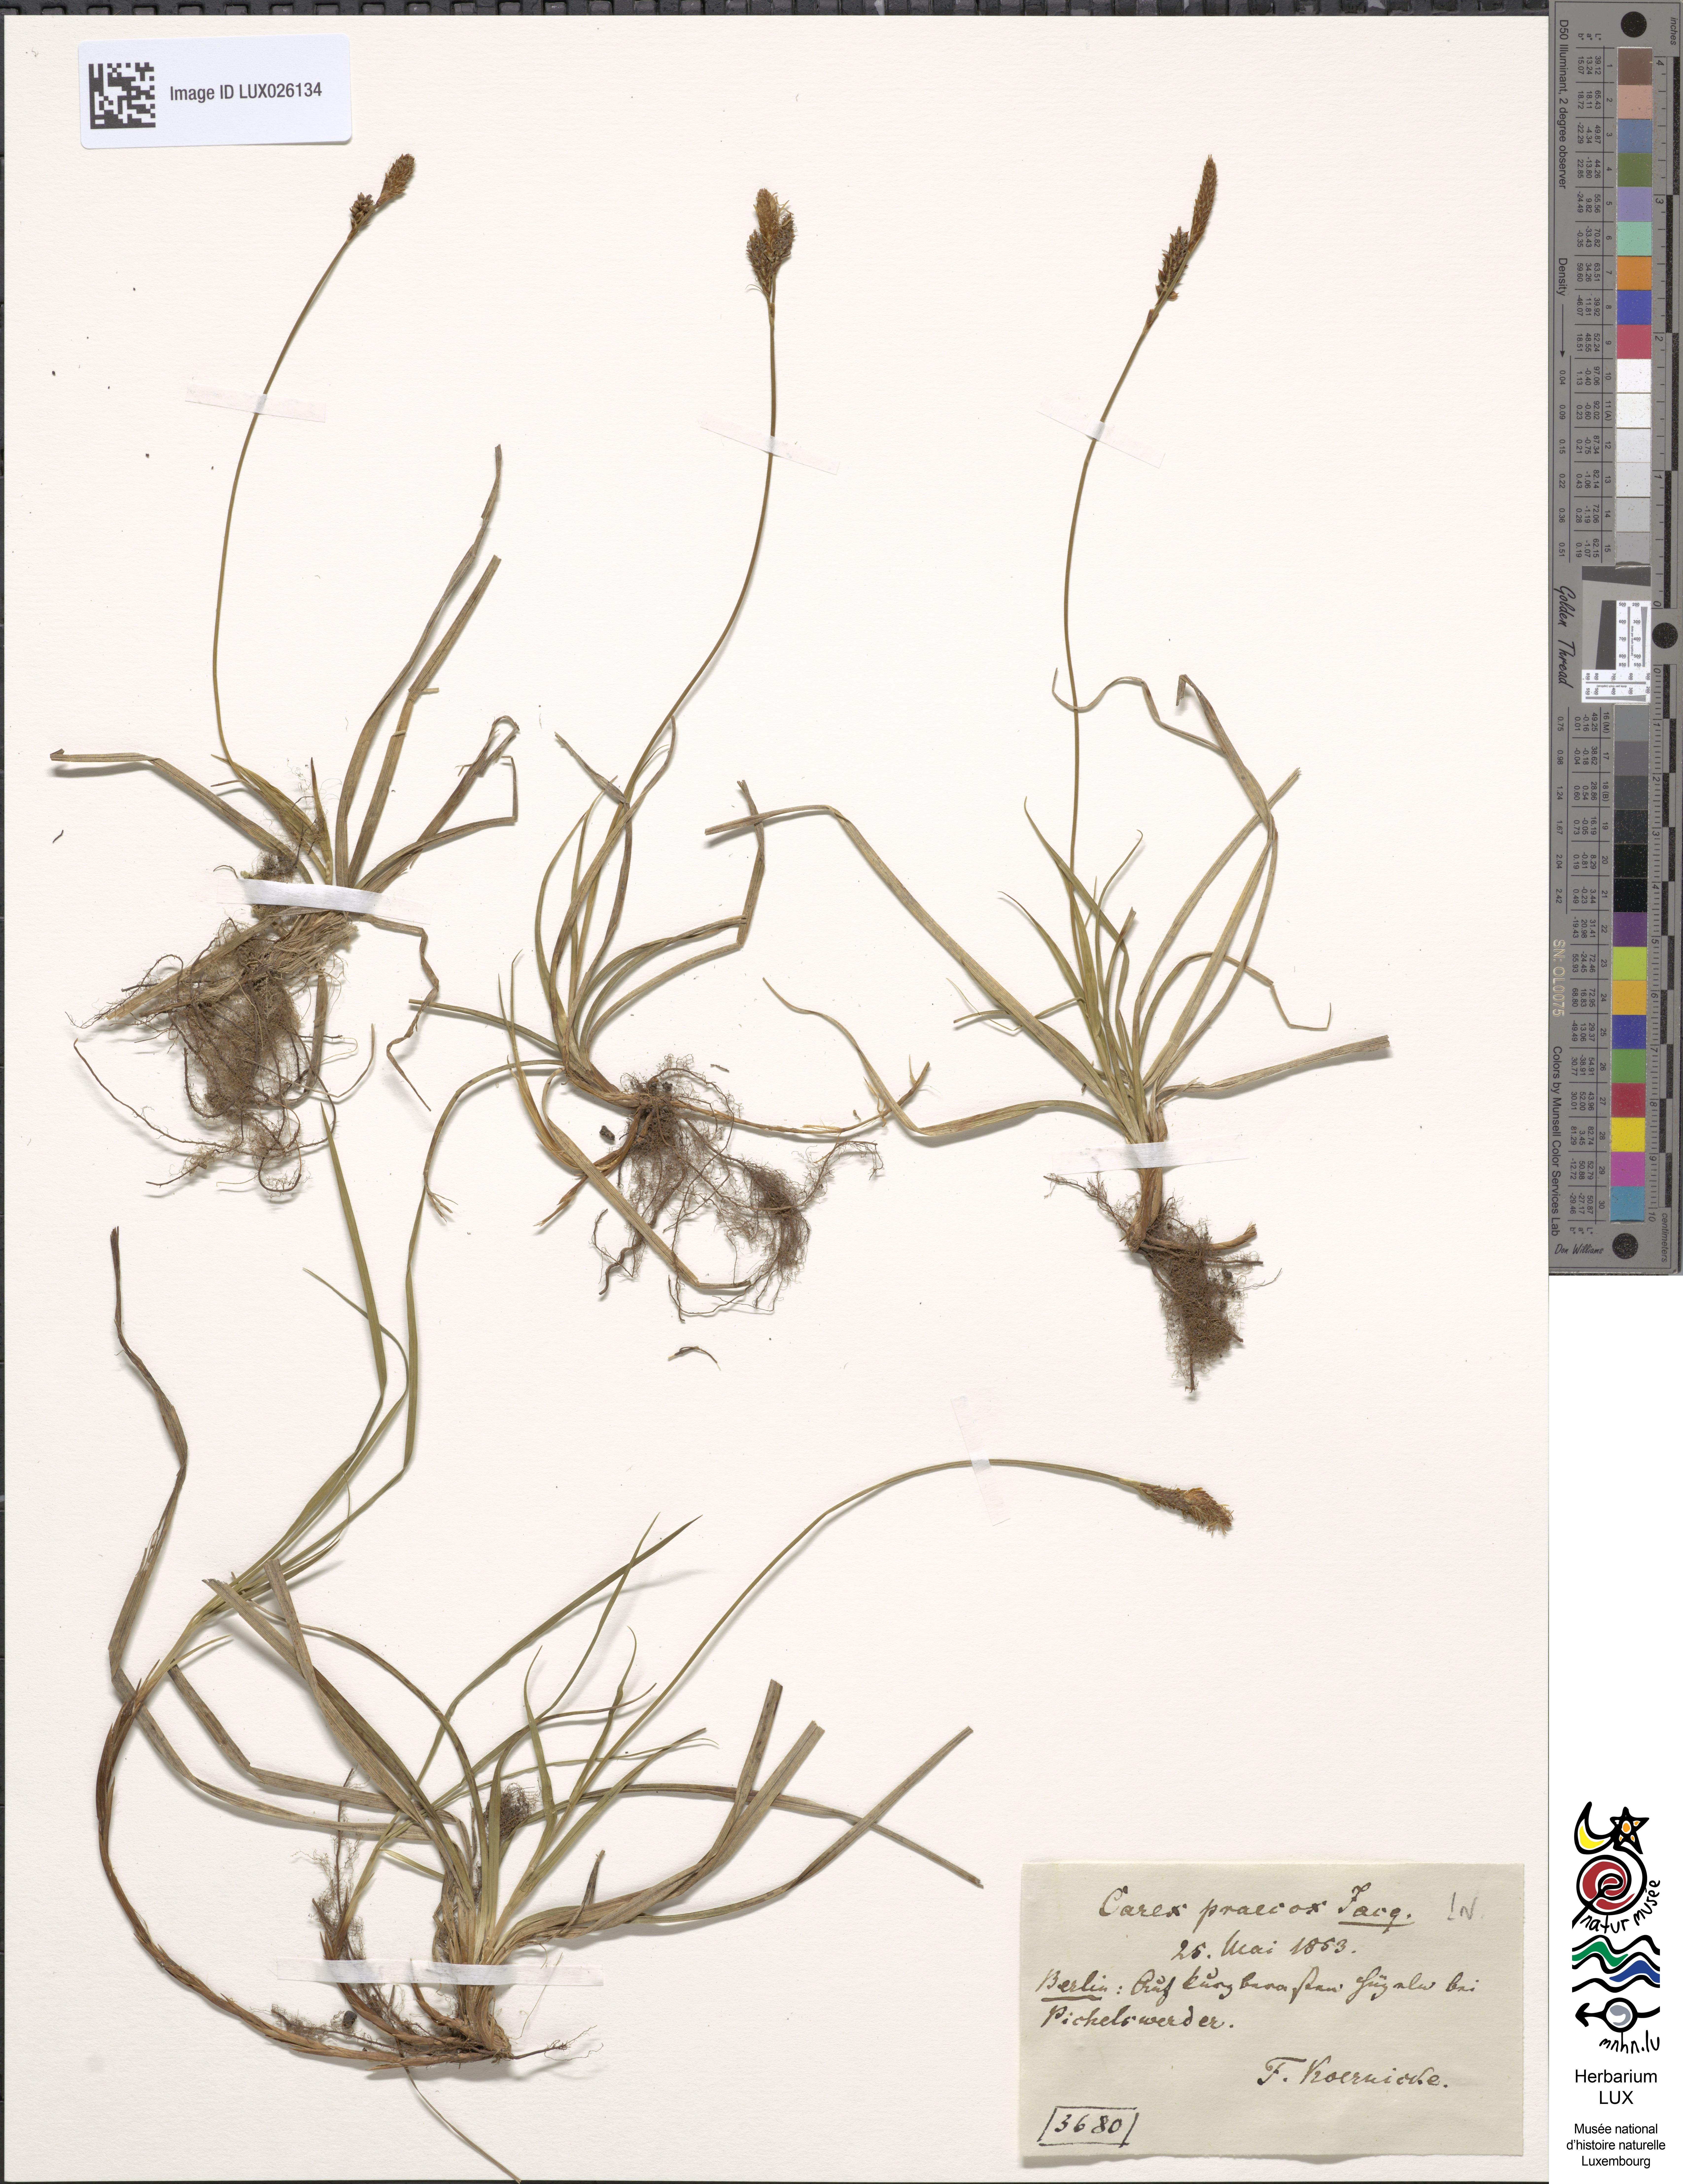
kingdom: Plantae
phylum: Tracheophyta
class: Liliopsida
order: Poales
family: Cyperaceae
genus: Carex
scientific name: Carex caryophyllea
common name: Spring sedge
